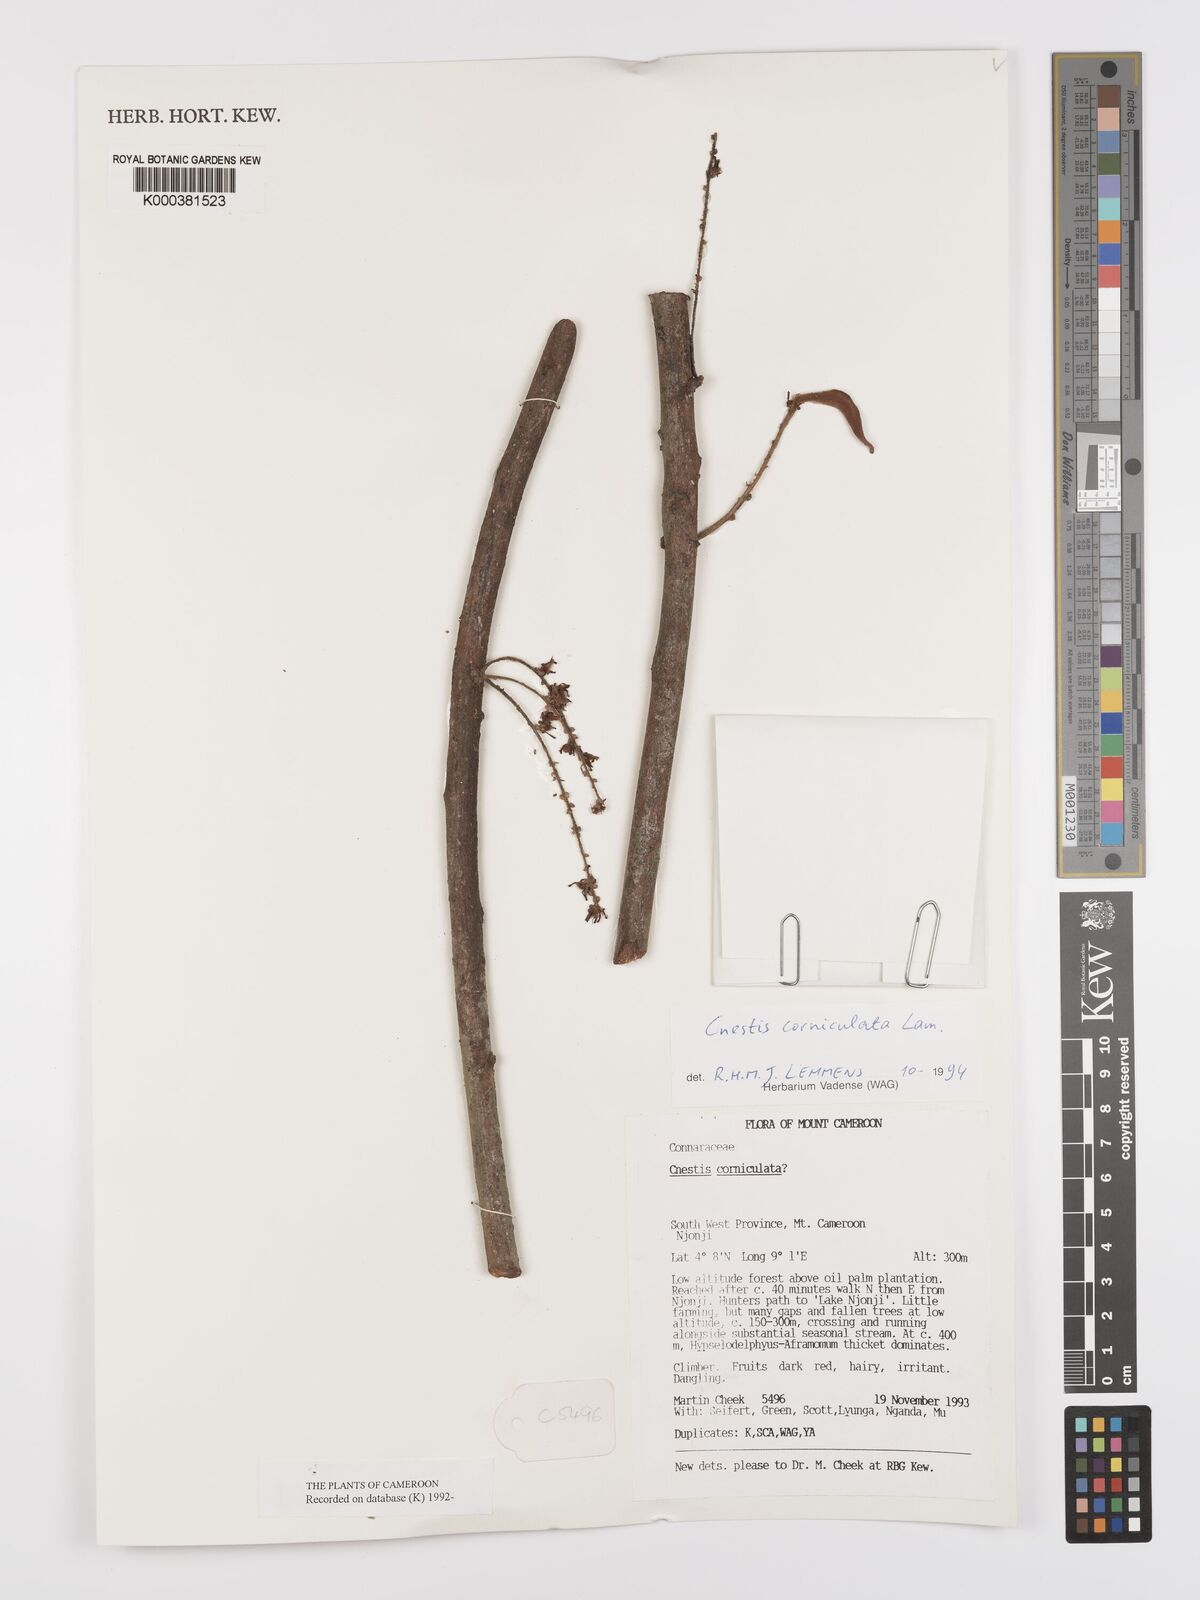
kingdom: Plantae
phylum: Tracheophyta
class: Magnoliopsida
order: Oxalidales
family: Connaraceae
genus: Cnestis
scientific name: Cnestis corniculata
